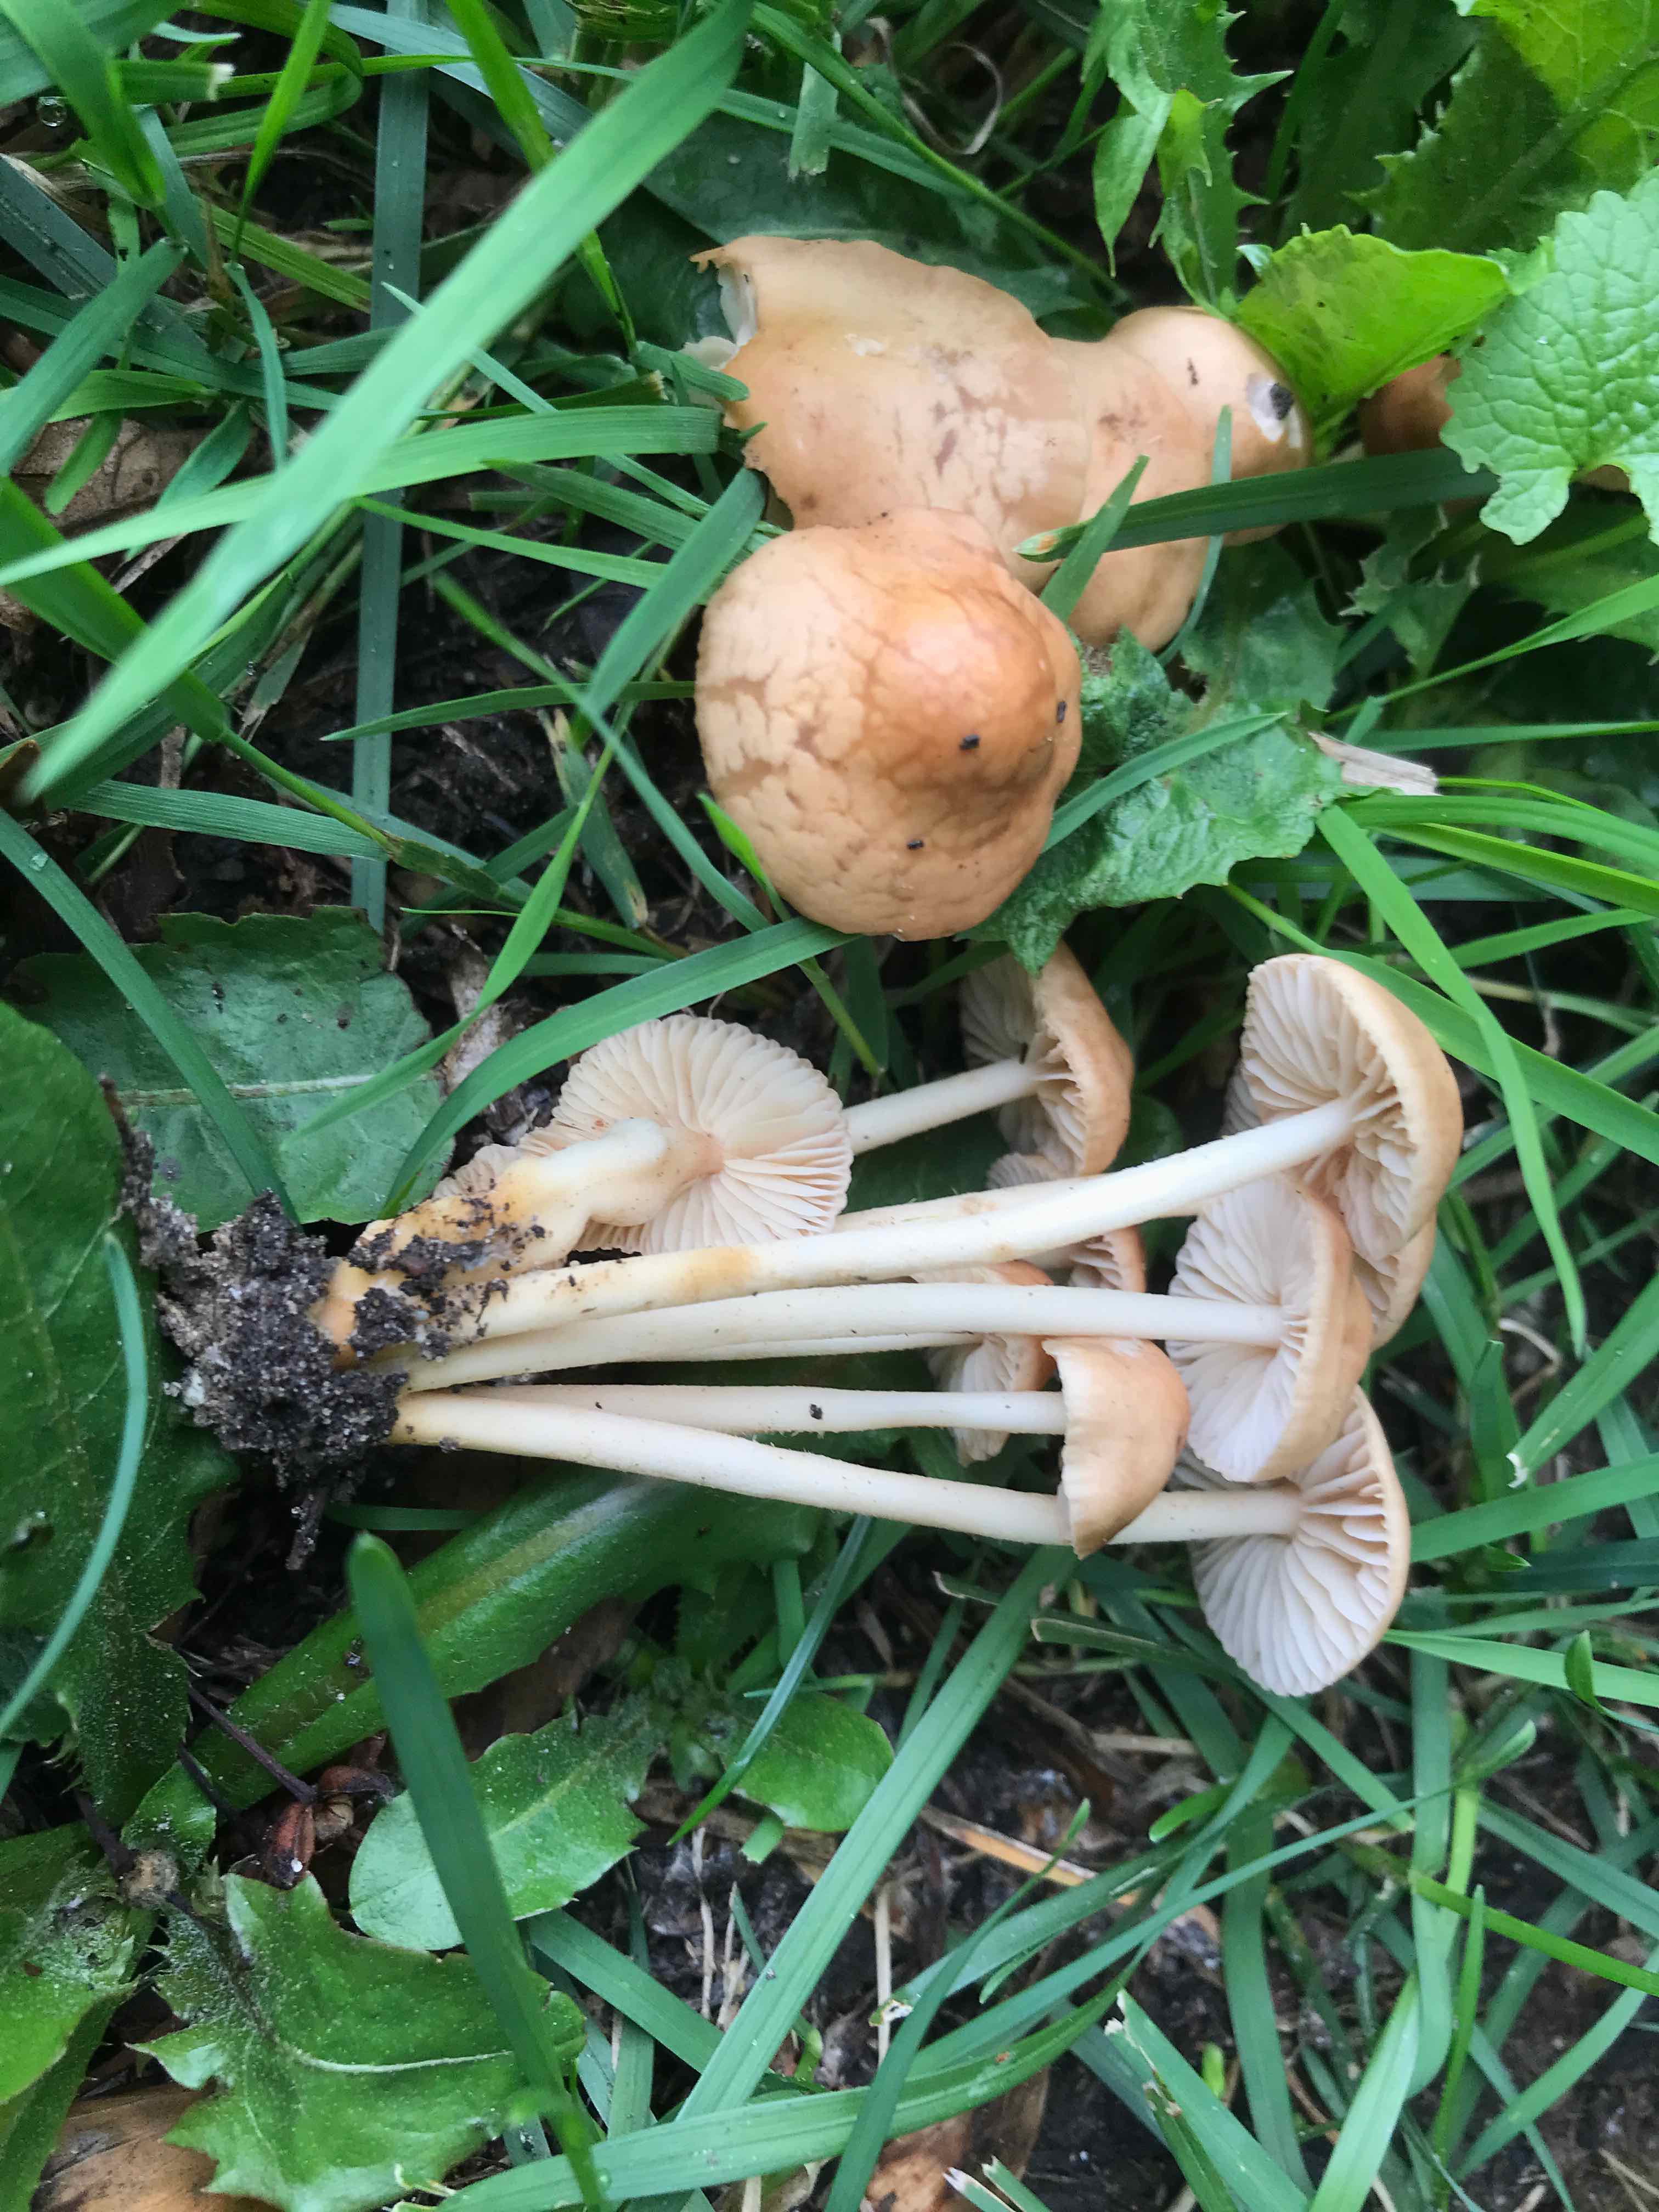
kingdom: Fungi
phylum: Basidiomycota
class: Agaricomycetes
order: Agaricales
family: Marasmiaceae
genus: Marasmius
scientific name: Marasmius oreades
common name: elledans-bruskhat
